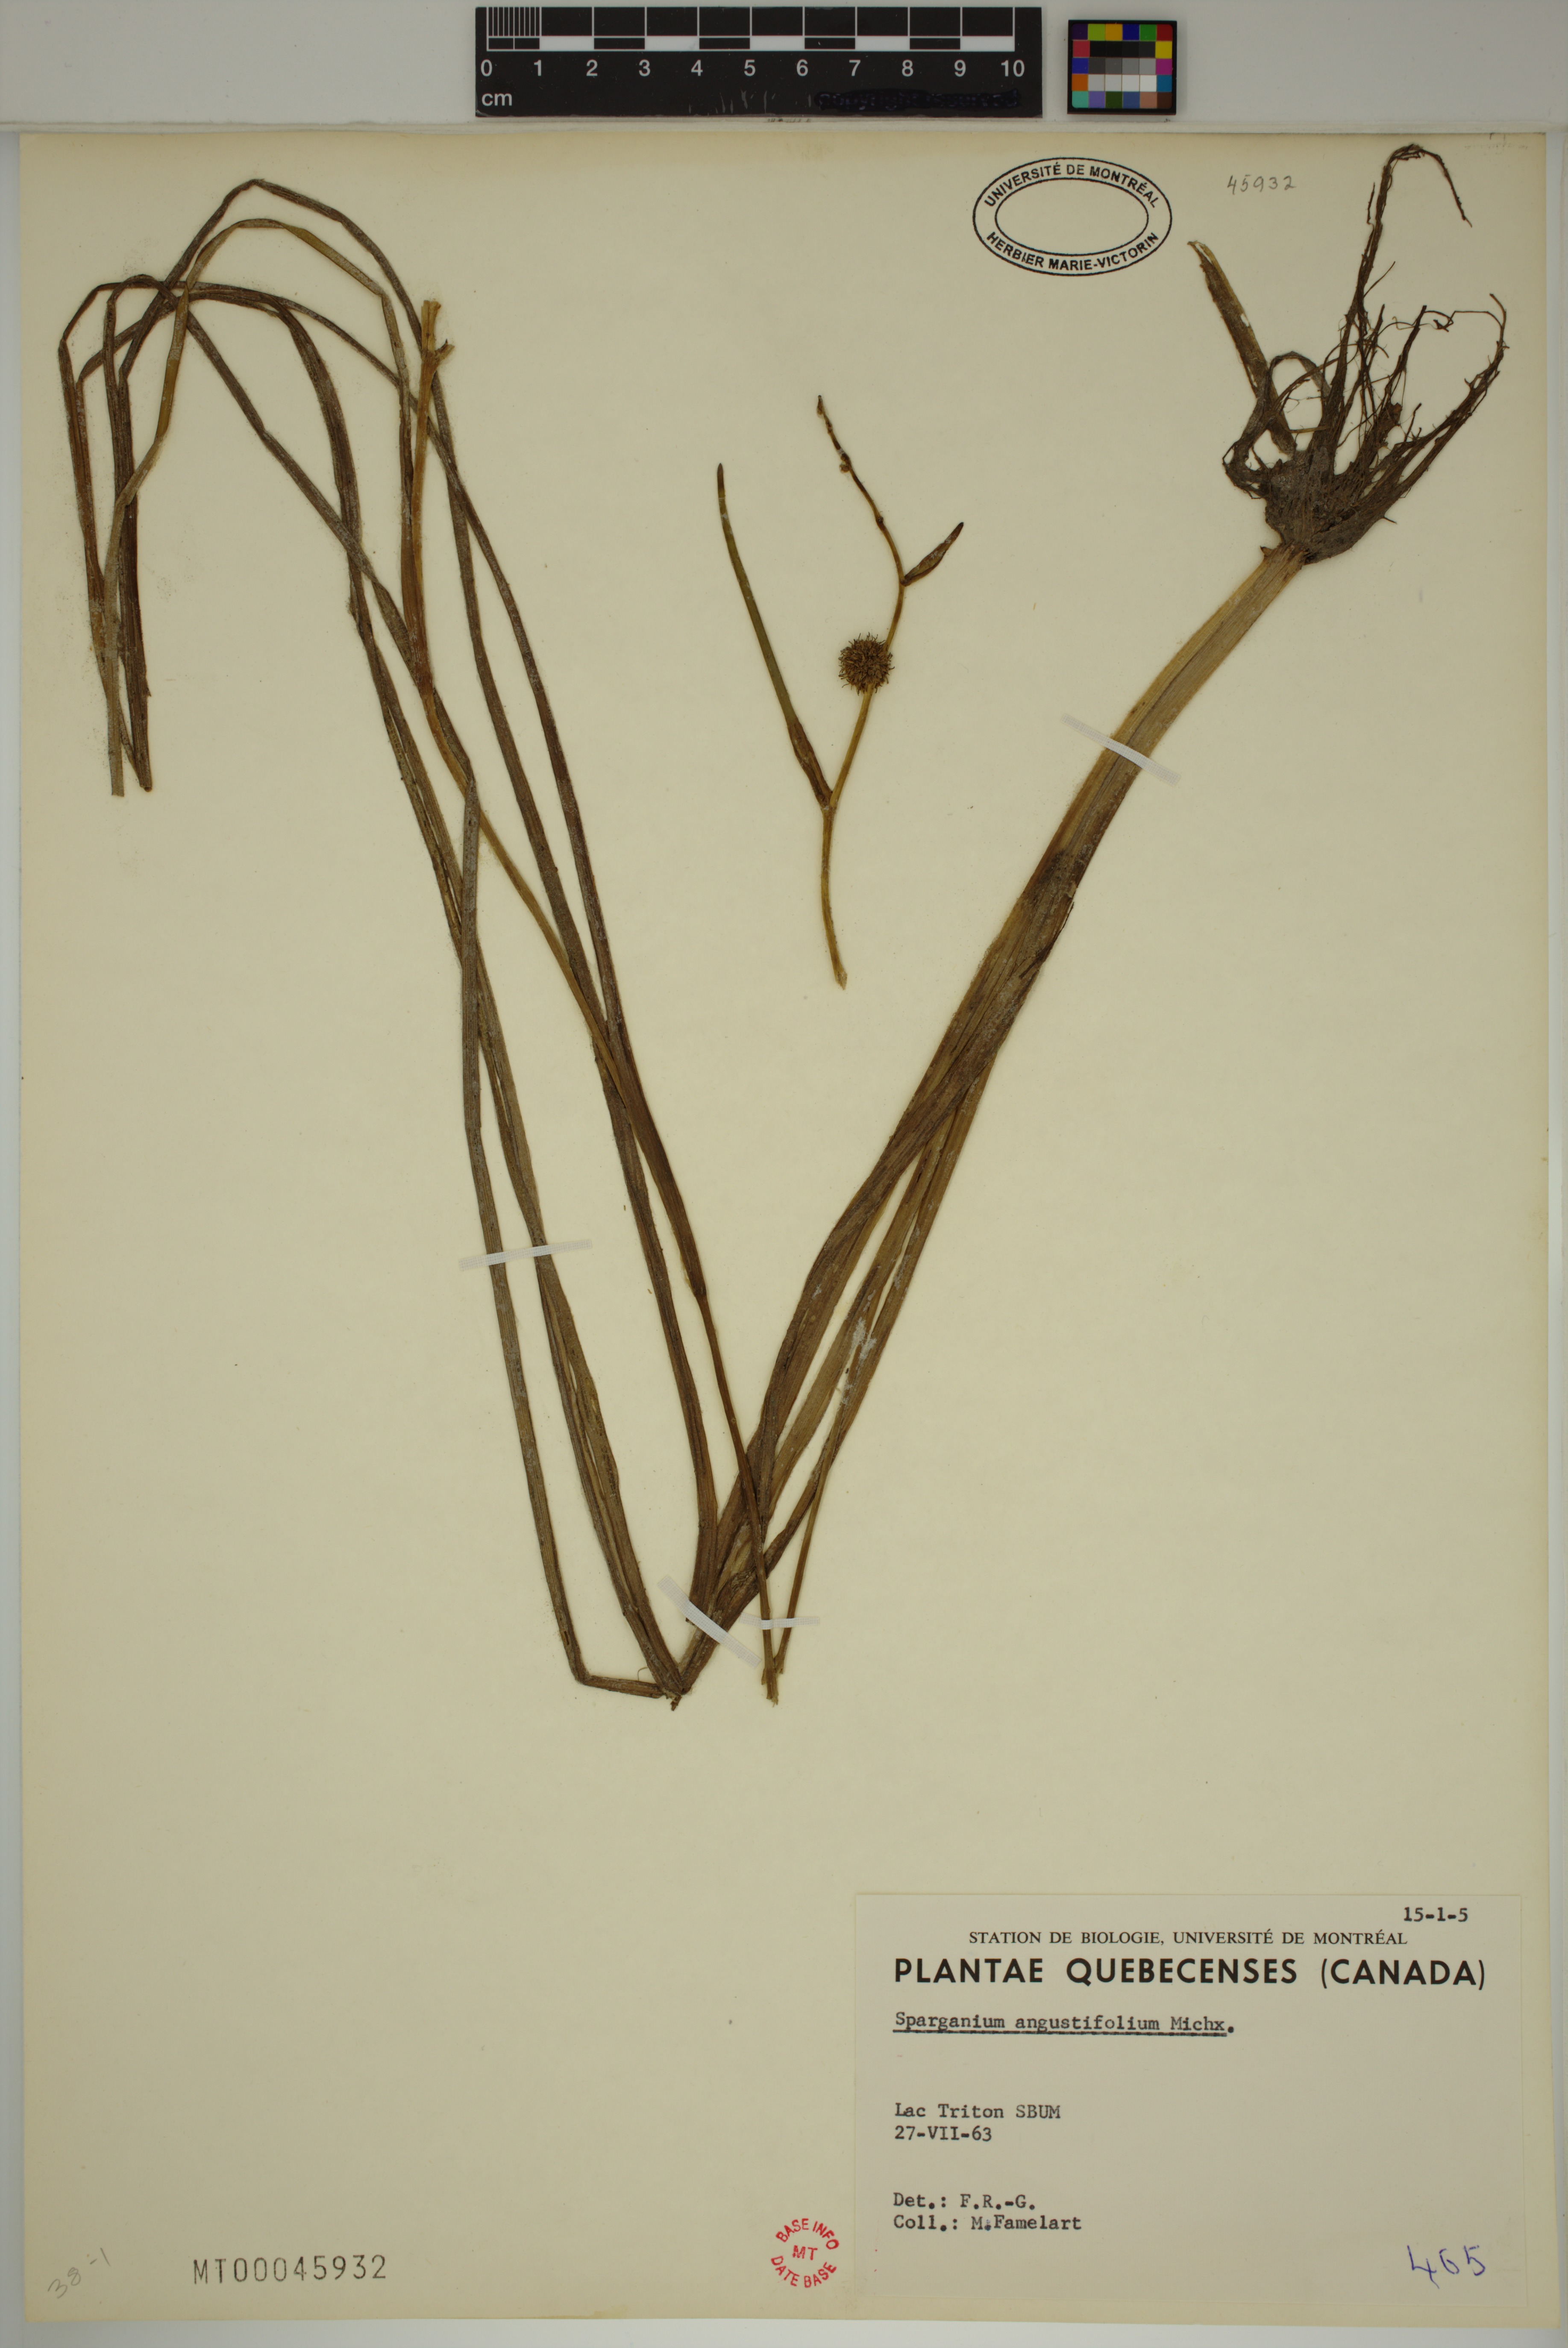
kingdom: Plantae
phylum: Tracheophyta
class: Liliopsida
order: Poales
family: Typhaceae
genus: Sparganium
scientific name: Sparganium angustifolium
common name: Floating bur-reed
